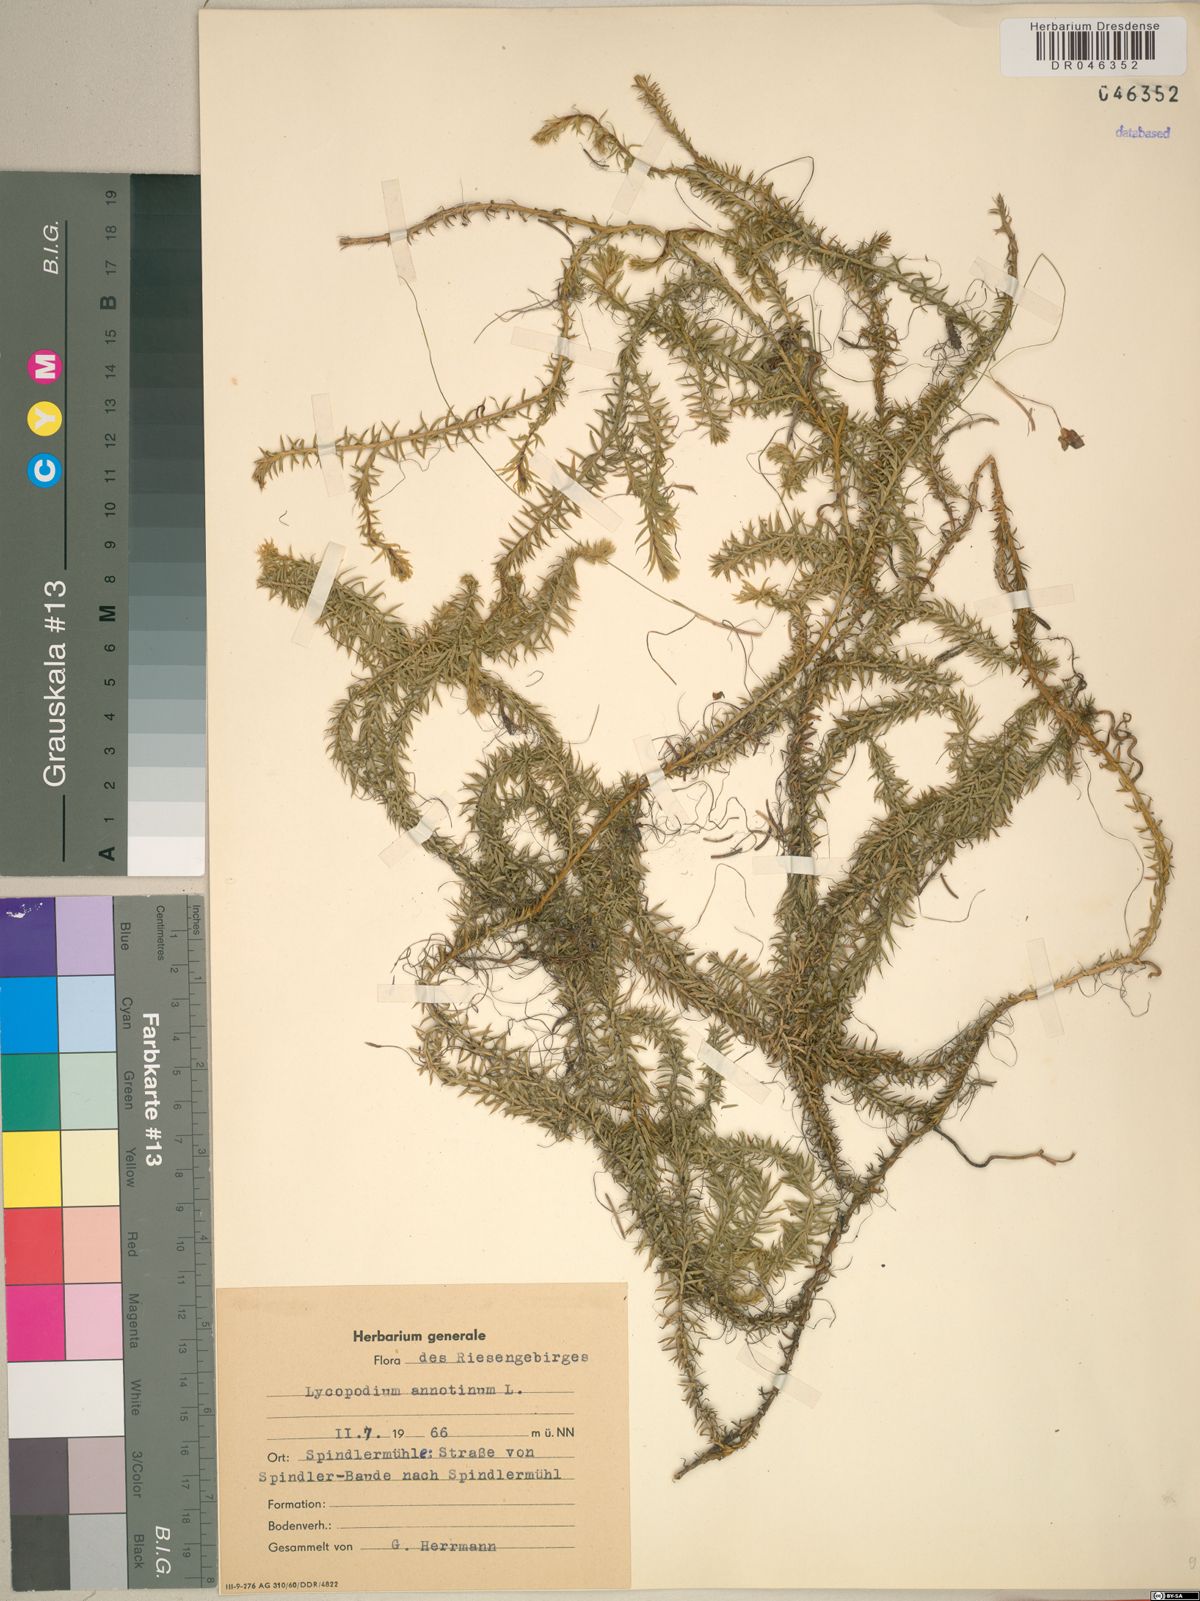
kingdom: Plantae
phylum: Tracheophyta
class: Lycopodiopsida
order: Lycopodiales
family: Lycopodiaceae
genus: Spinulum
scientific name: Spinulum annotinum
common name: Interrupted club-moss
